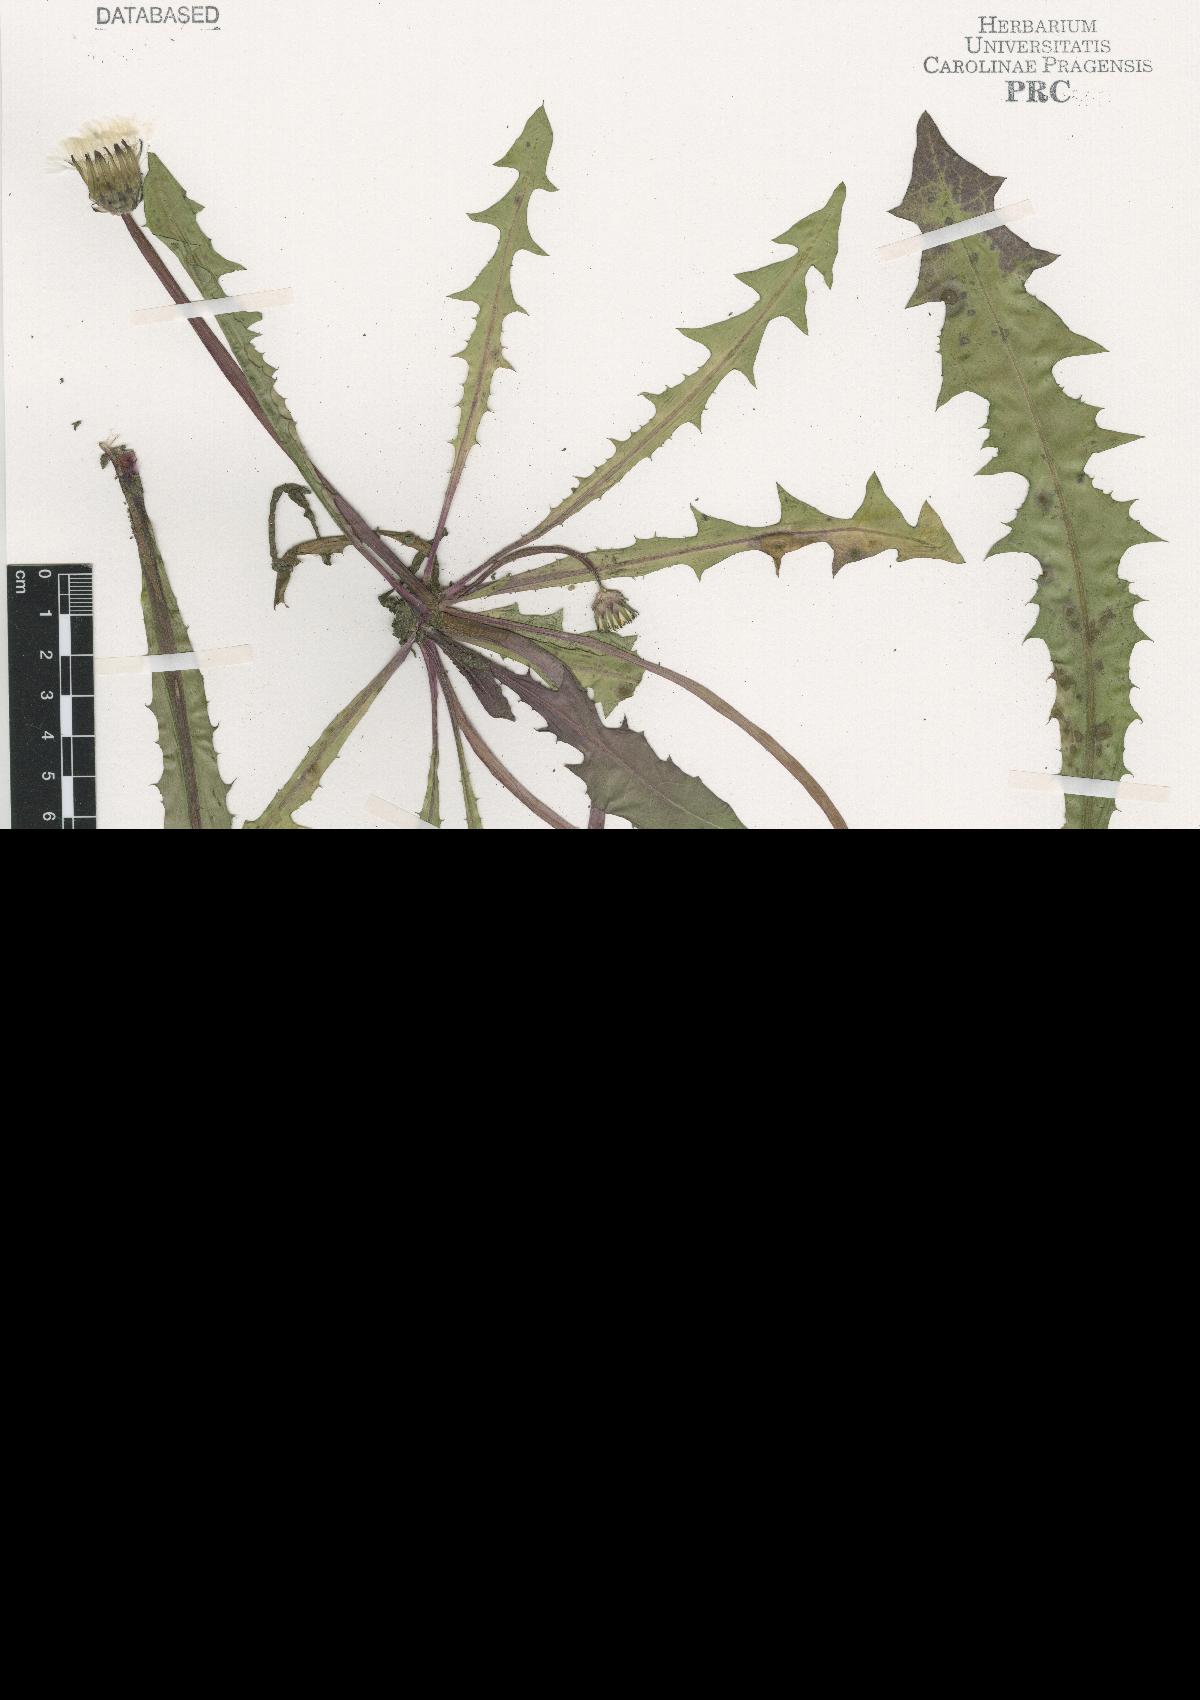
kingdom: Plantae
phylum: Tracheophyta
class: Magnoliopsida
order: Asterales
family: Asteraceae
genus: Taraxacum
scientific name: Taraxacum florum
